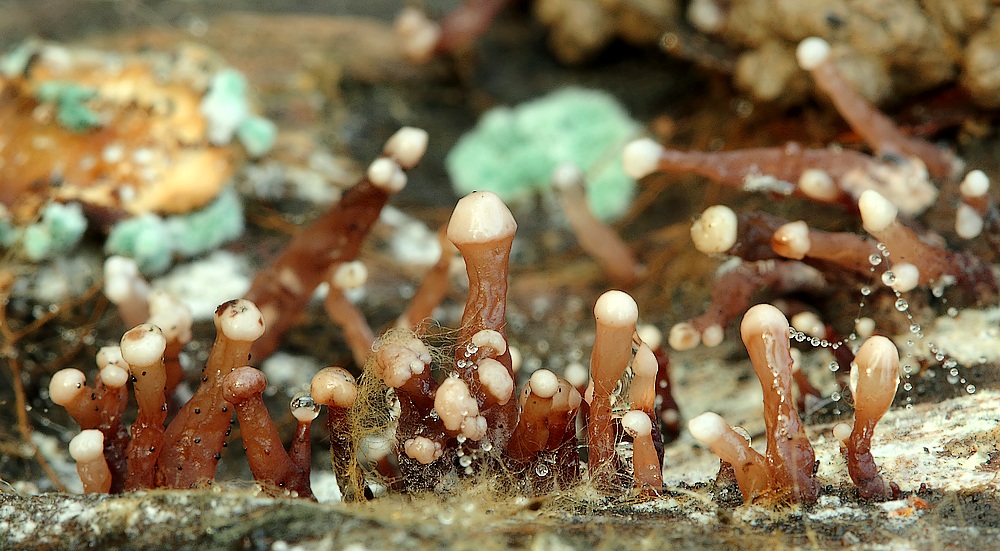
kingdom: Fungi
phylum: Ascomycota
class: Leotiomycetes
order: Helotiales
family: Gelatinodiscaceae
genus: Ascocoryne
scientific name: Ascocoryne albida
